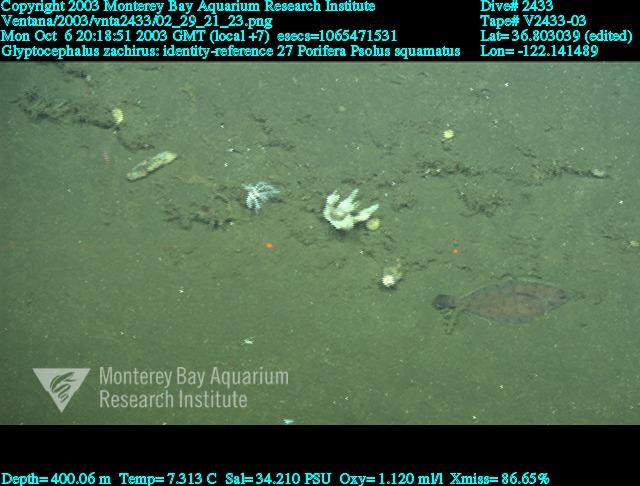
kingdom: Animalia
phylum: Porifera
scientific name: Porifera
